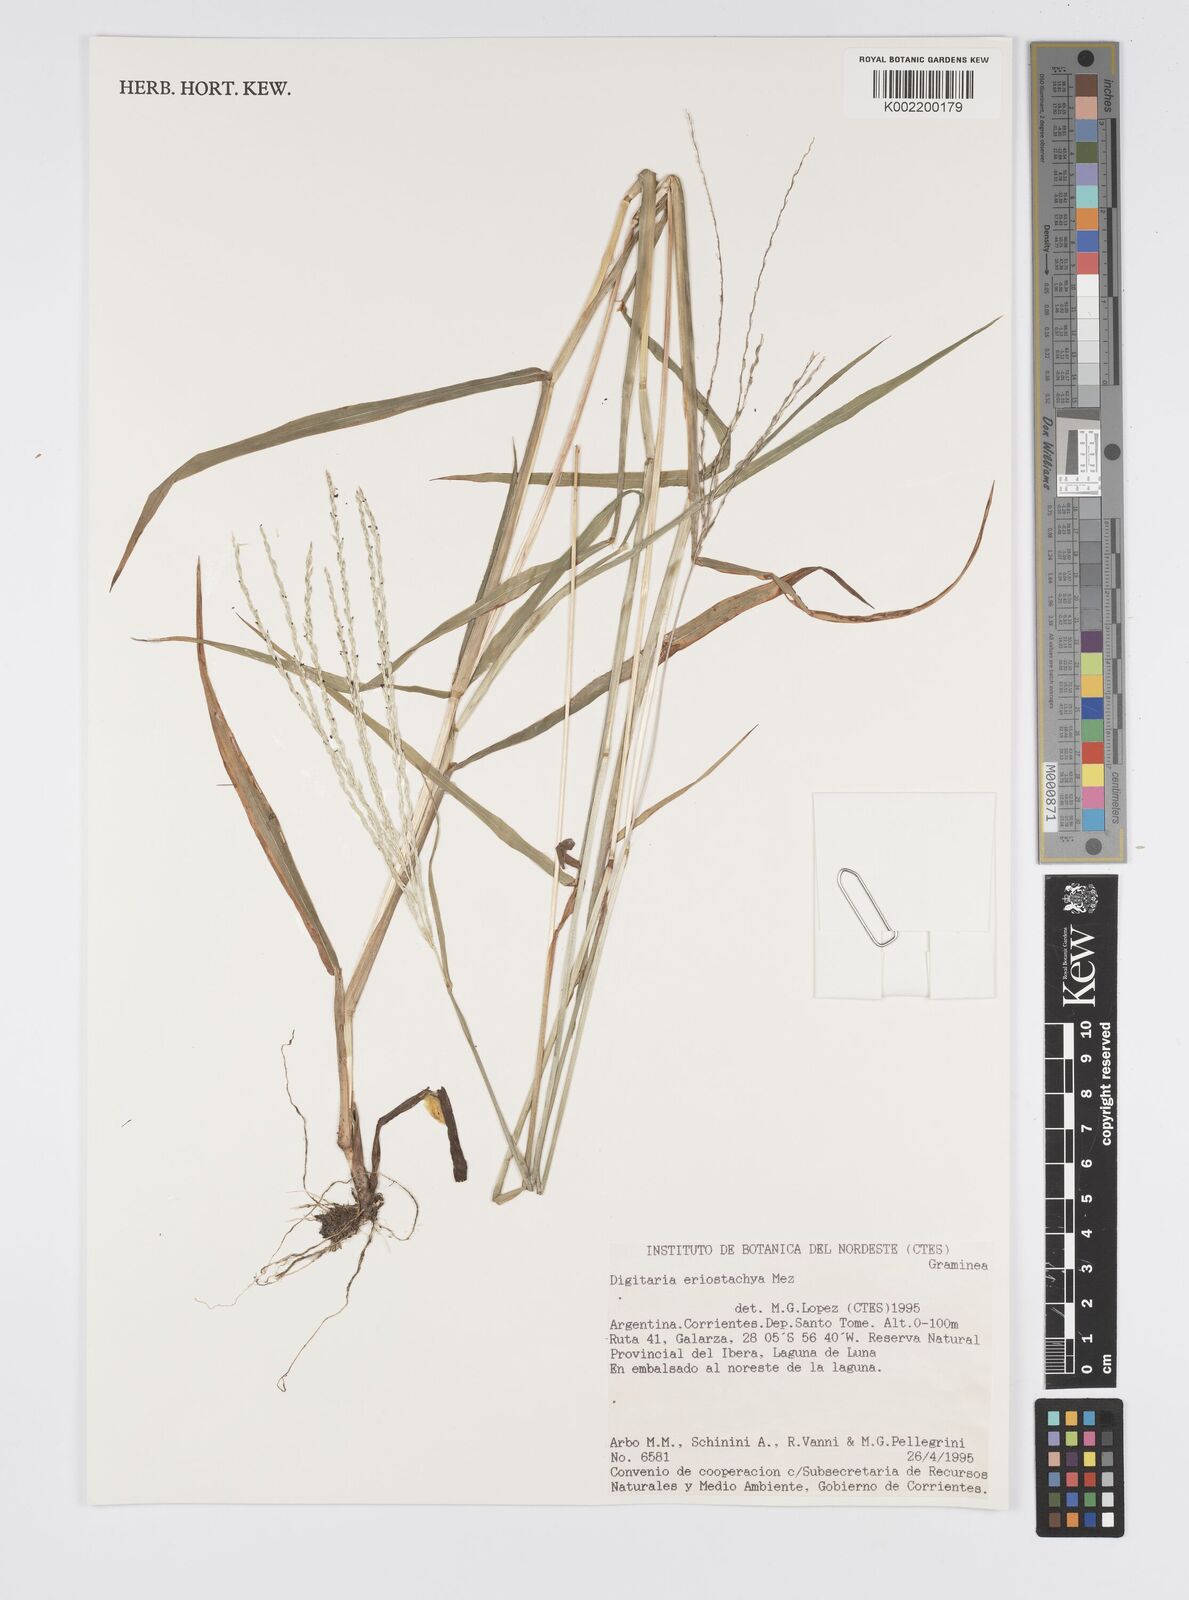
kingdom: Plantae
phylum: Tracheophyta
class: Liliopsida
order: Poales
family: Poaceae
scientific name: Poaceae
